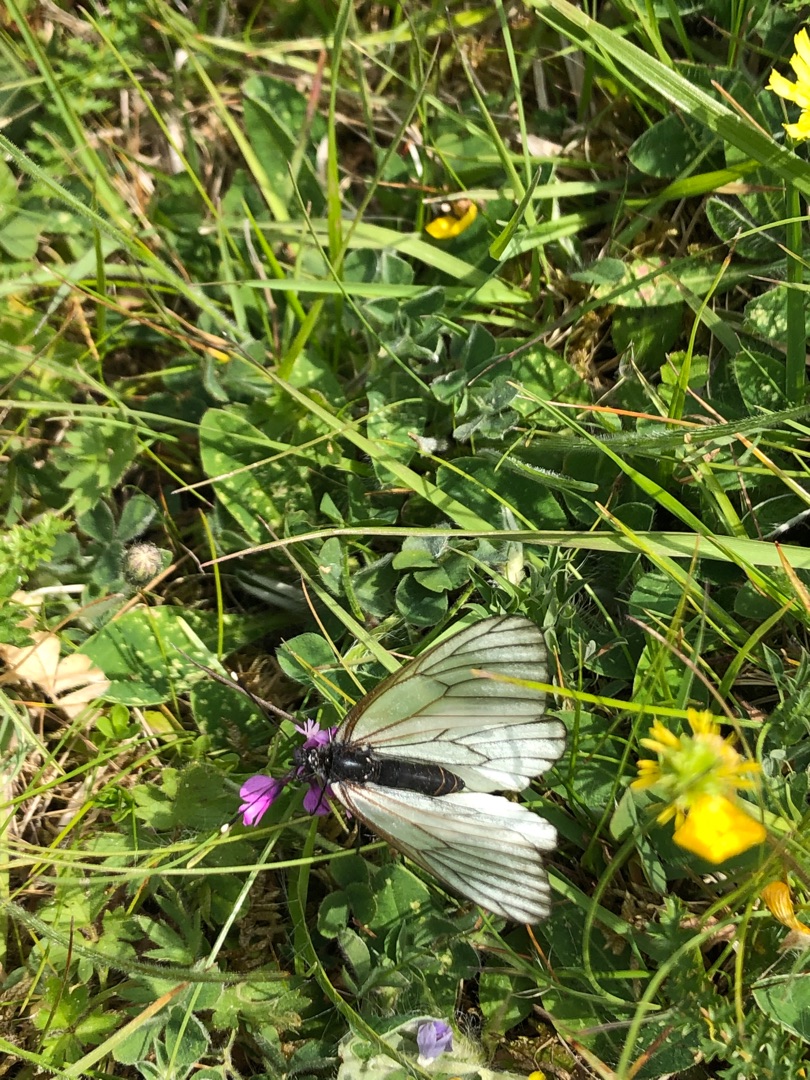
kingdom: Animalia
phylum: Arthropoda
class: Insecta
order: Lepidoptera
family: Pieridae
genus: Aporia
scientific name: Aporia crataegi
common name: Sortåret hvidvinge
